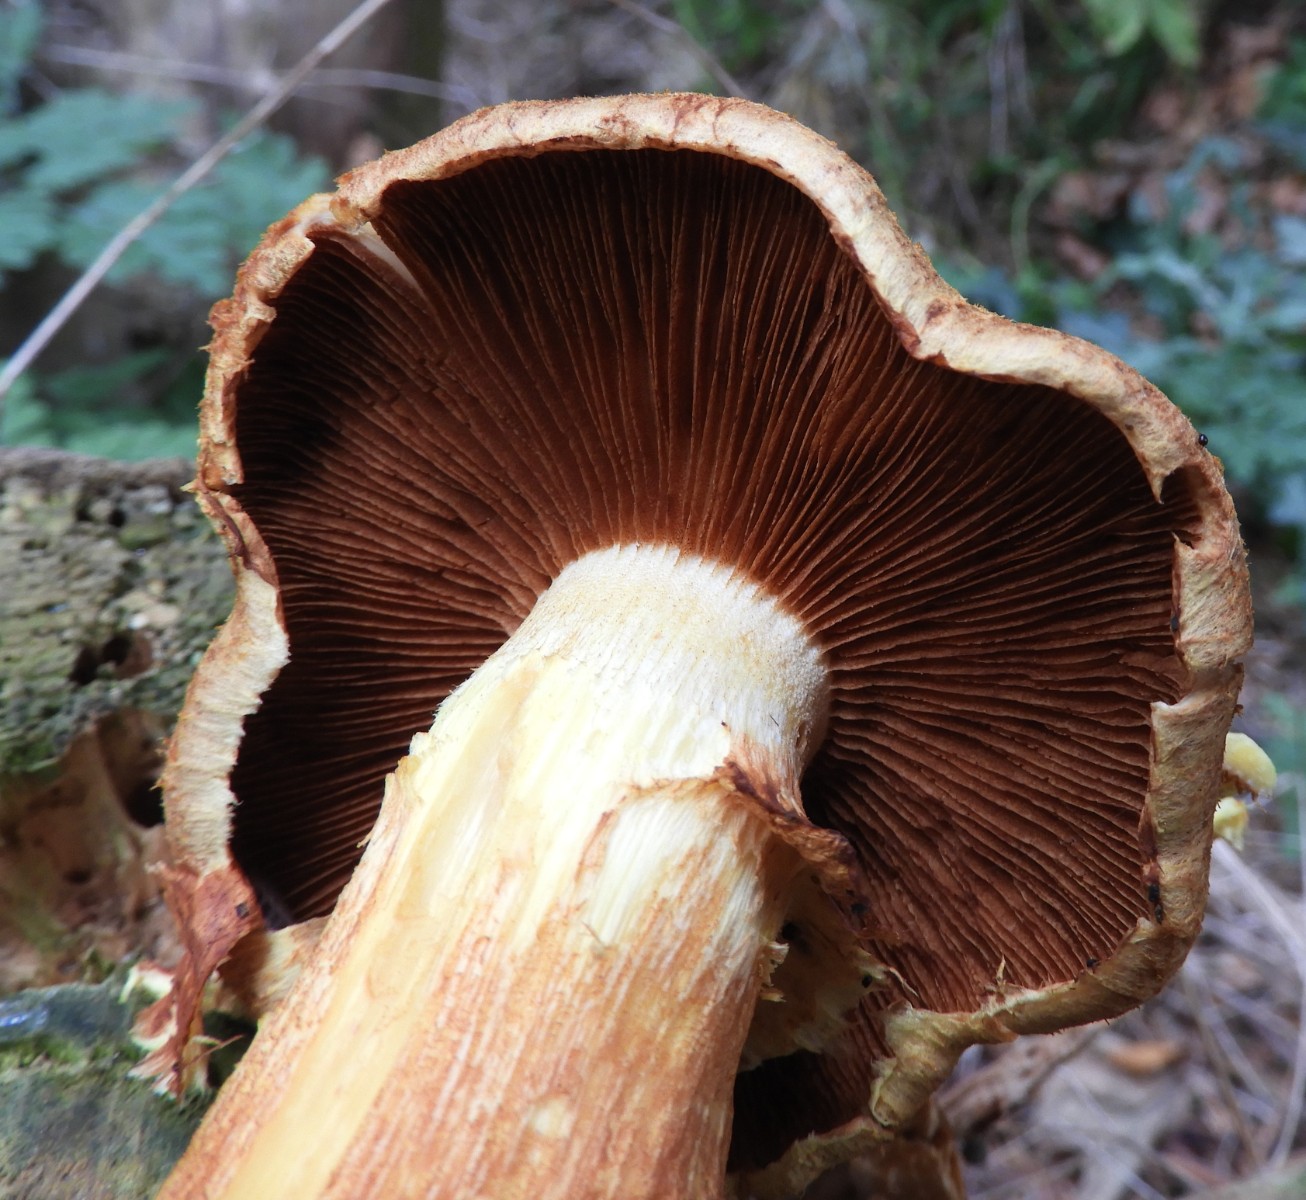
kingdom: Fungi
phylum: Basidiomycota
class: Agaricomycetes
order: Agaricales
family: Hymenogastraceae
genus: Gymnopilus
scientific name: Gymnopilus spectabilis
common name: fibret flammehat
